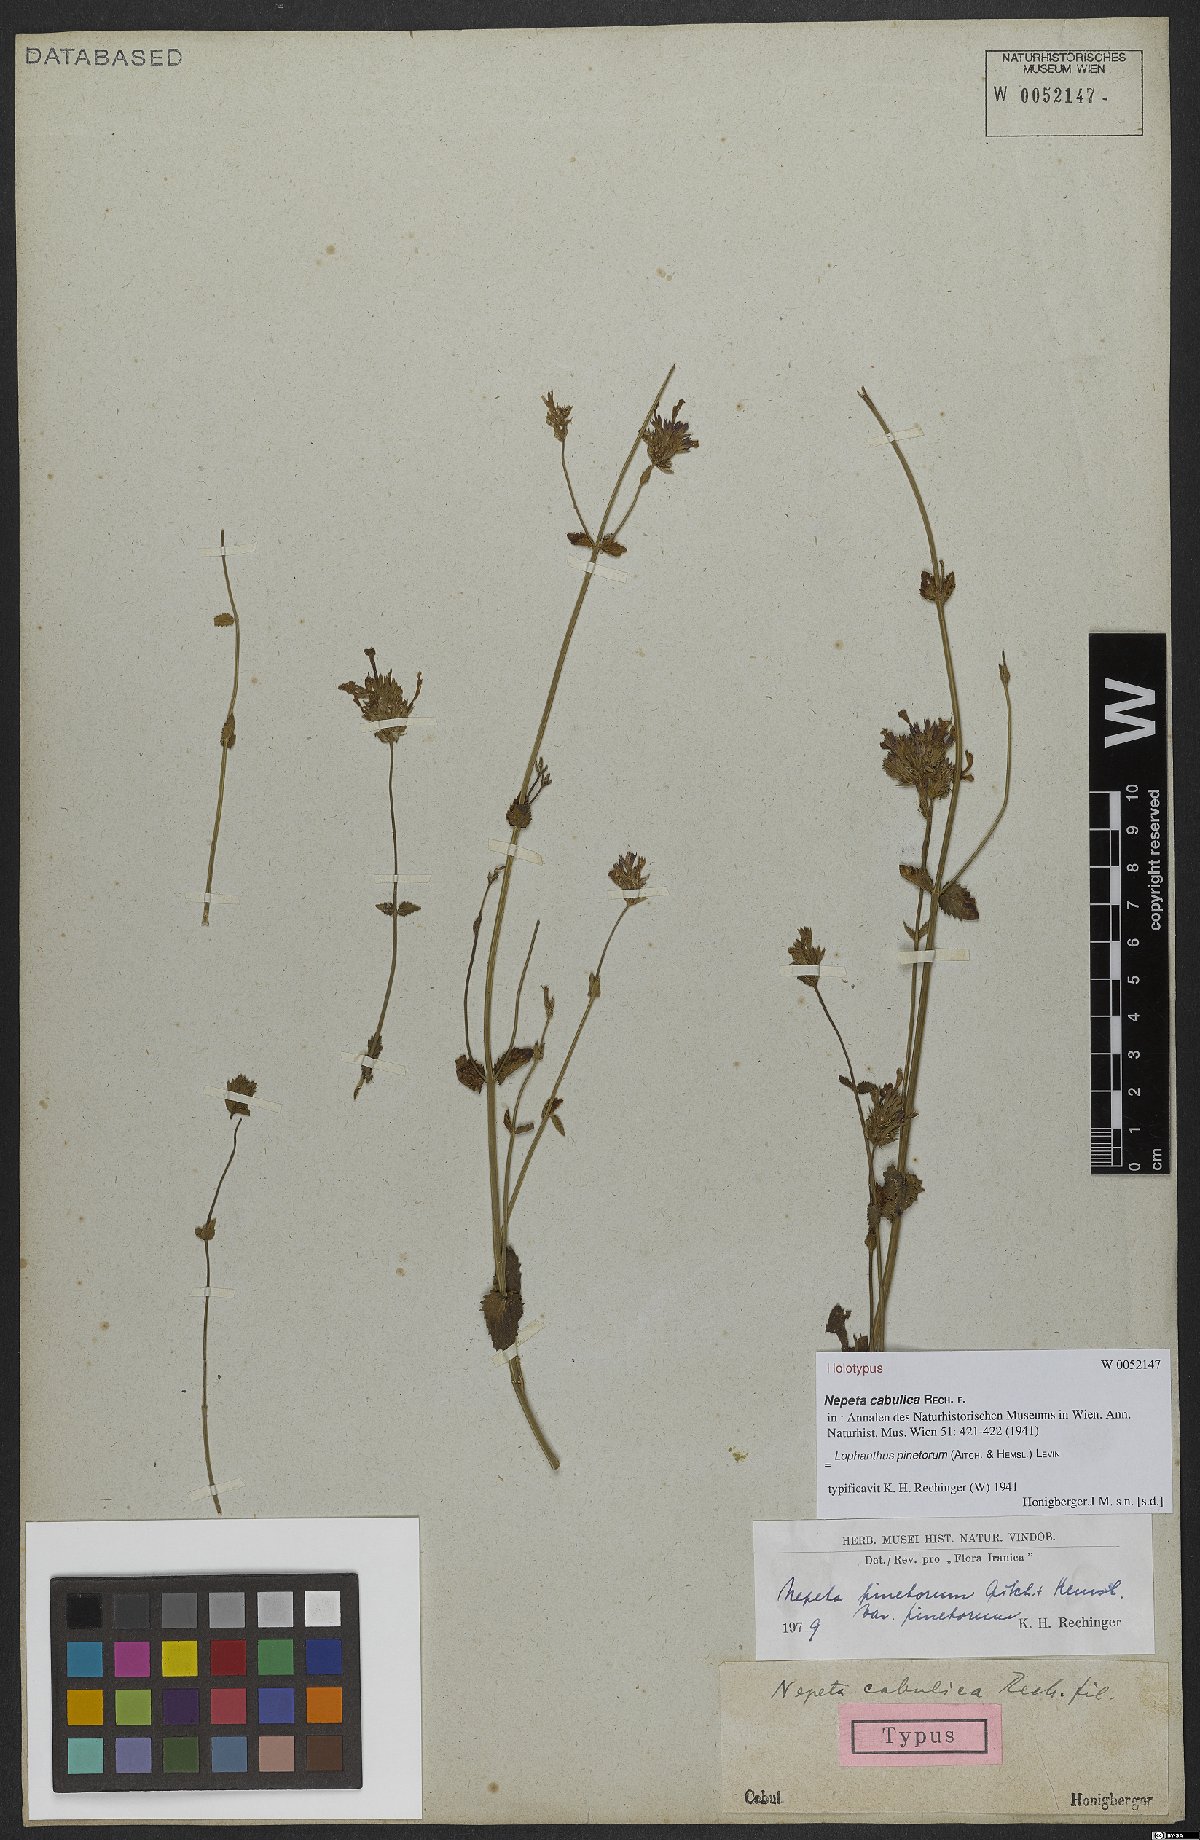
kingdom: Plantae
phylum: Tracheophyta
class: Magnoliopsida
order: Lamiales
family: Lamiaceae
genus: Nepeta
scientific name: Nepeta pinetorum
